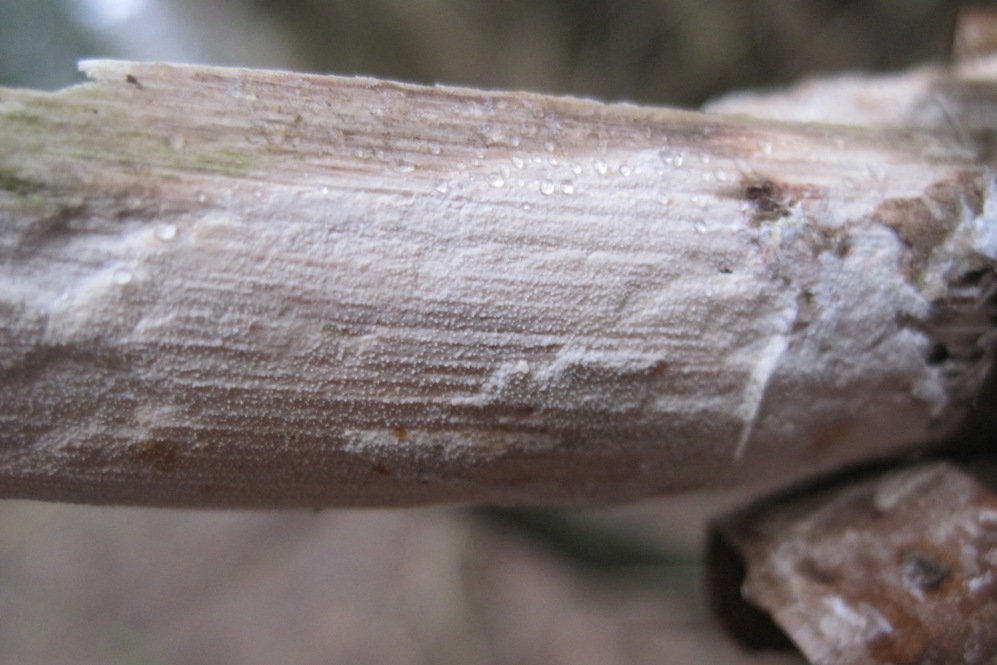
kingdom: Fungi
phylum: Basidiomycota
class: Agaricomycetes
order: Corticiales
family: Corticiaceae
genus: Lyomyces
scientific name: Lyomyces crustosus
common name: vortet hyldehinde
